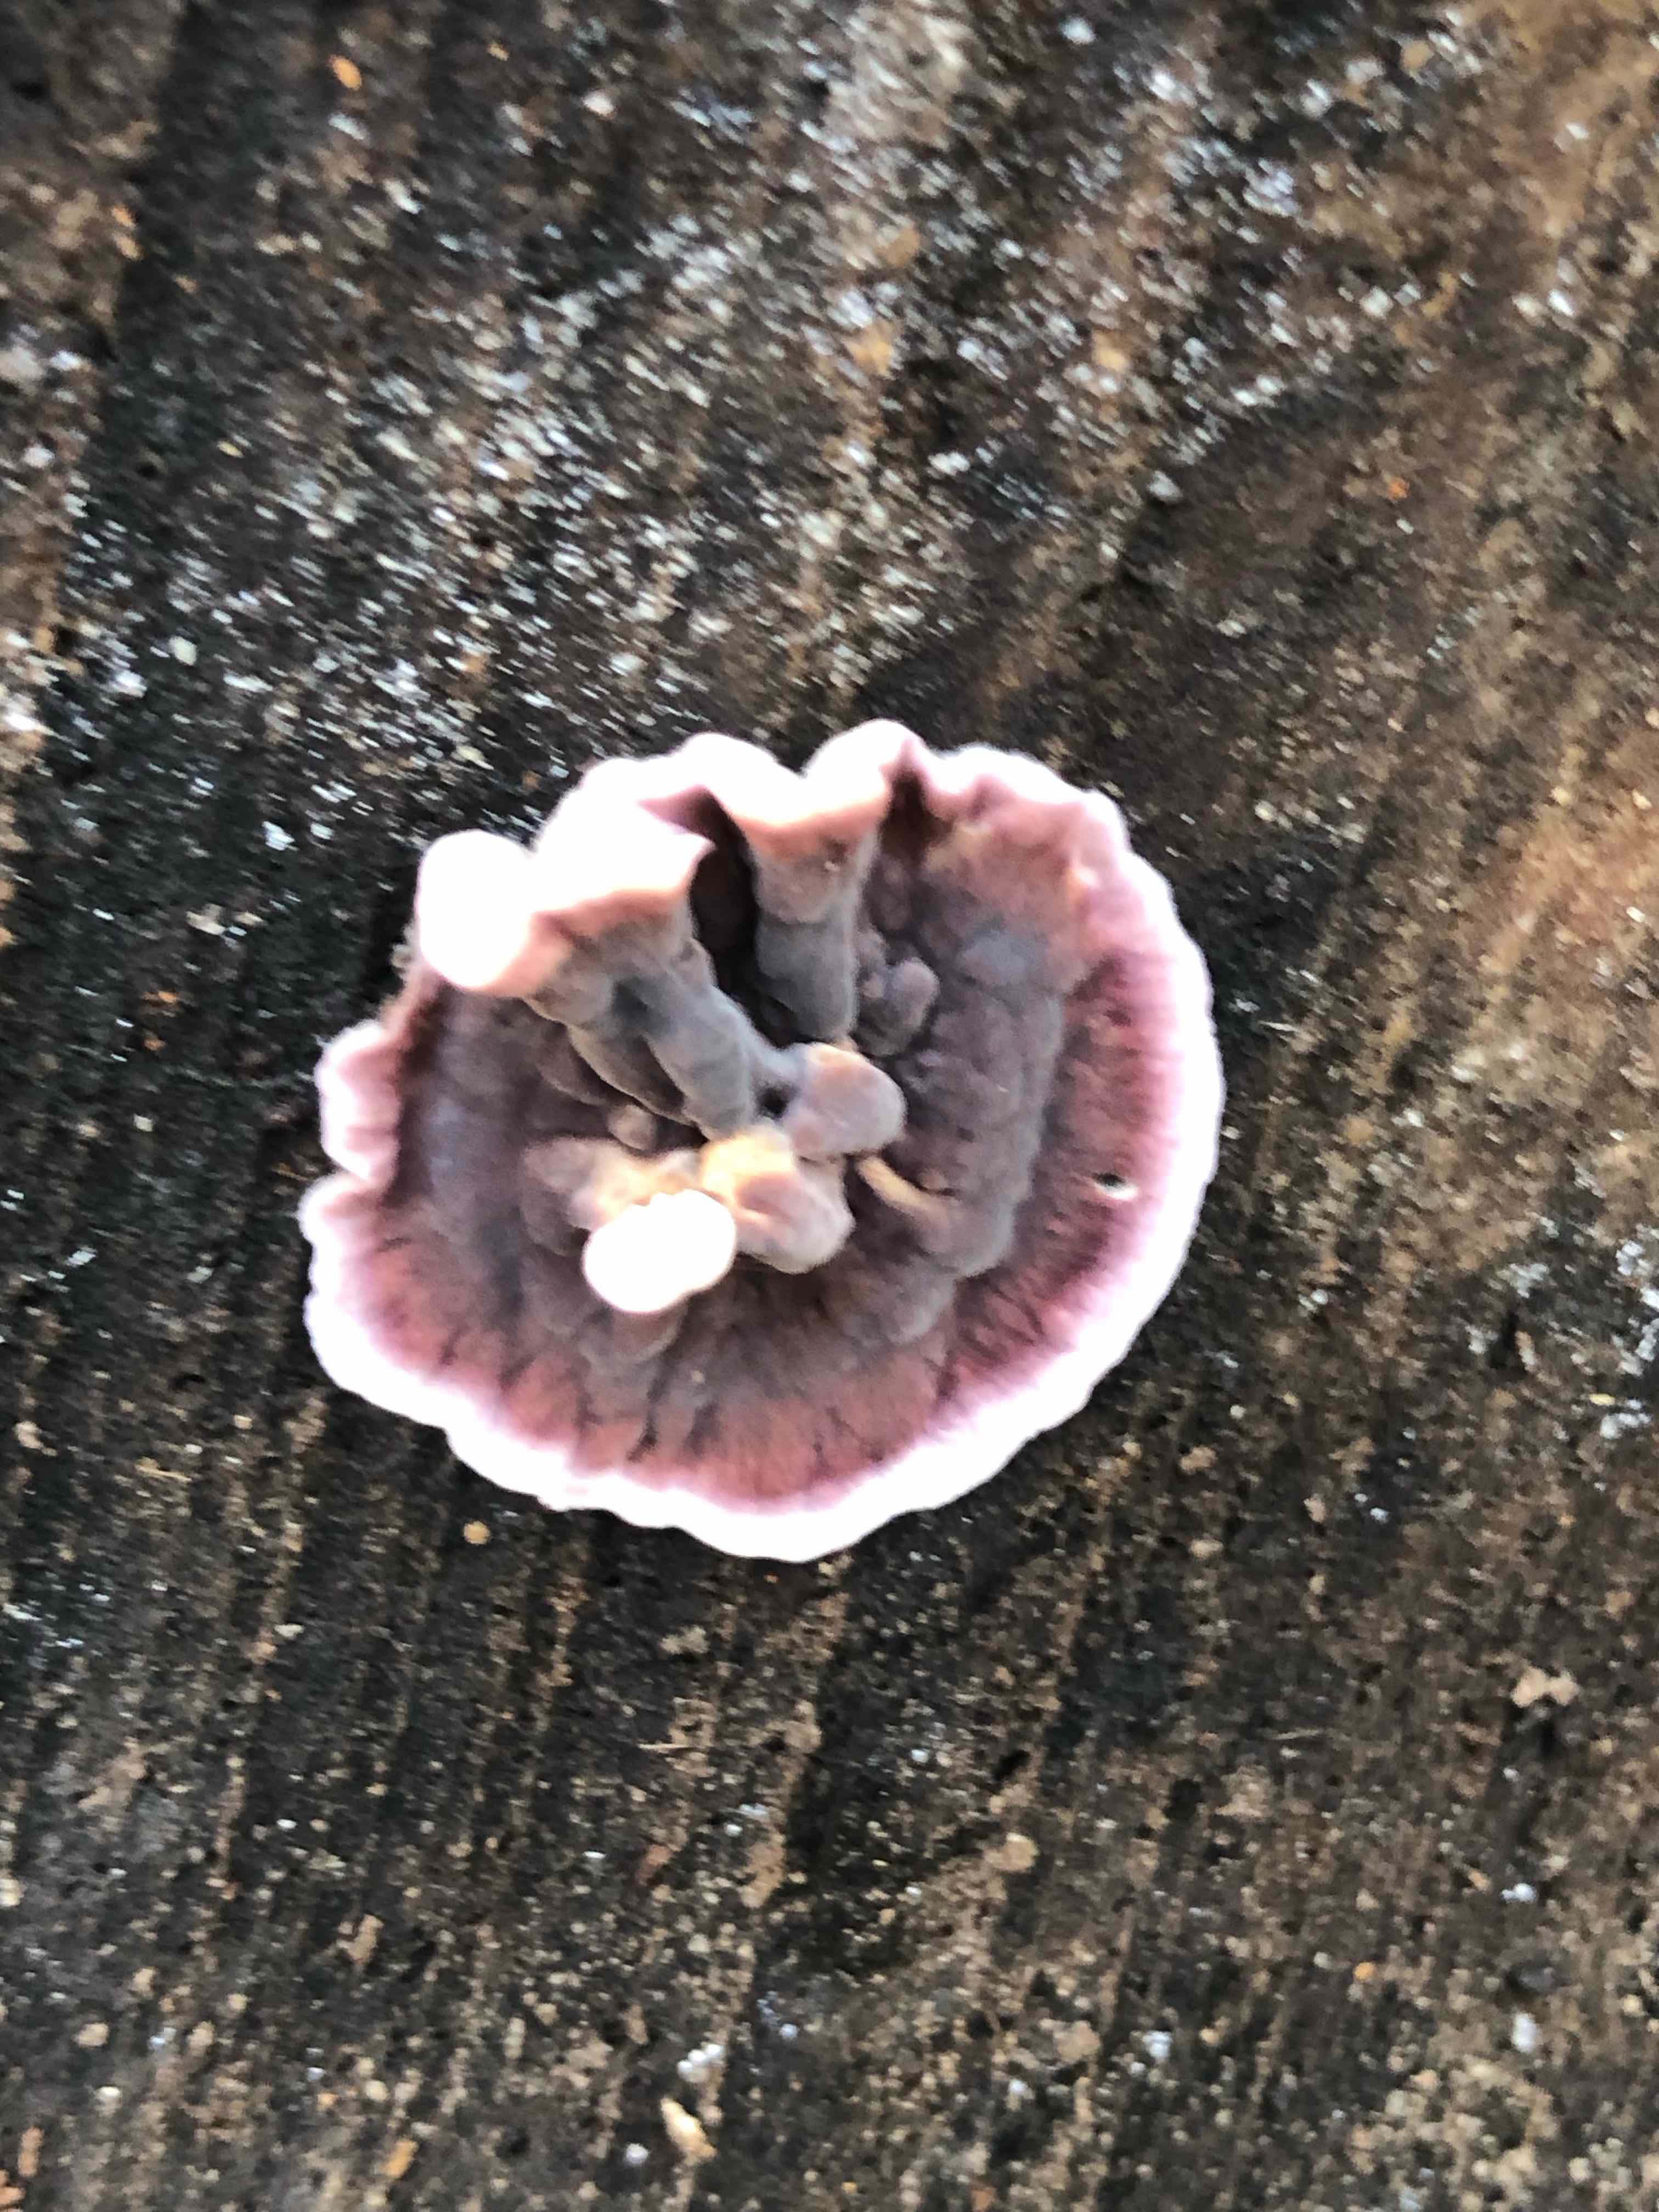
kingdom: Fungi
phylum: Basidiomycota
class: Agaricomycetes
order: Agaricales
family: Cyphellaceae
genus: Chondrostereum
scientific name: Chondrostereum purpureum
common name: purpurlædersvamp
